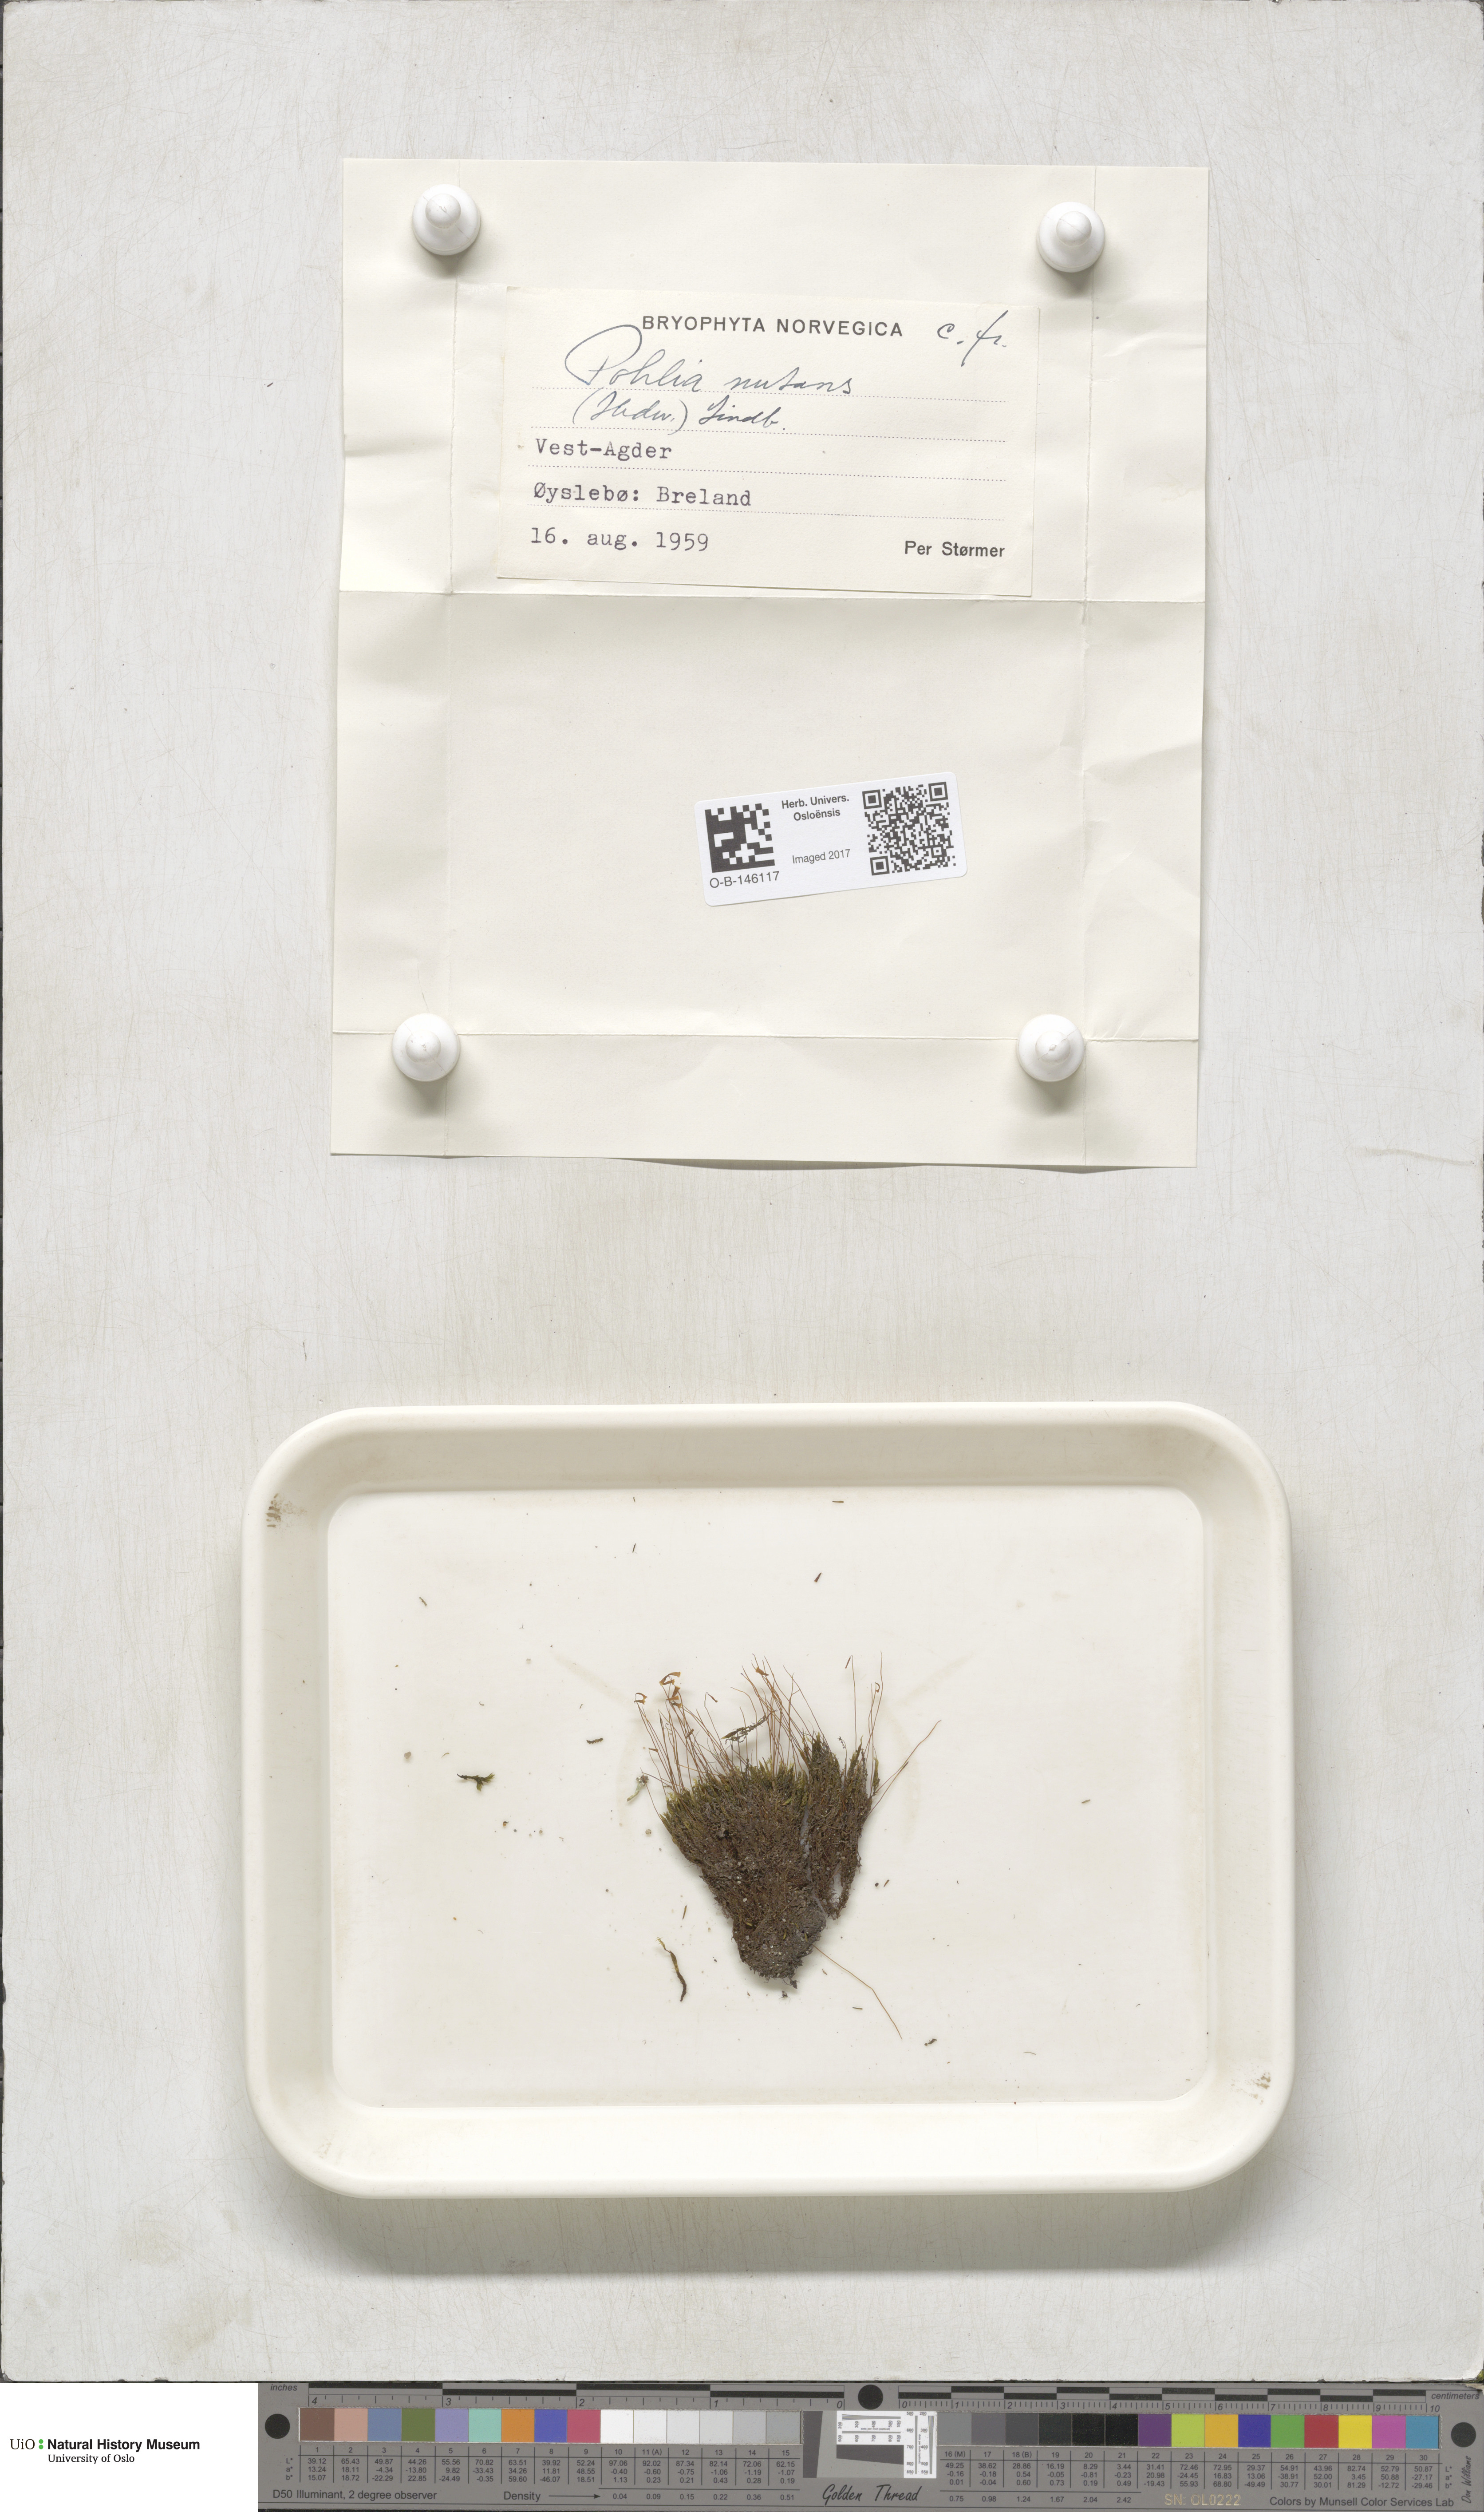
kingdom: Plantae
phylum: Bryophyta
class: Bryopsida
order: Bryales
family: Mniaceae
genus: Pohlia
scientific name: Pohlia nutans
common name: Nodding thread-moss
